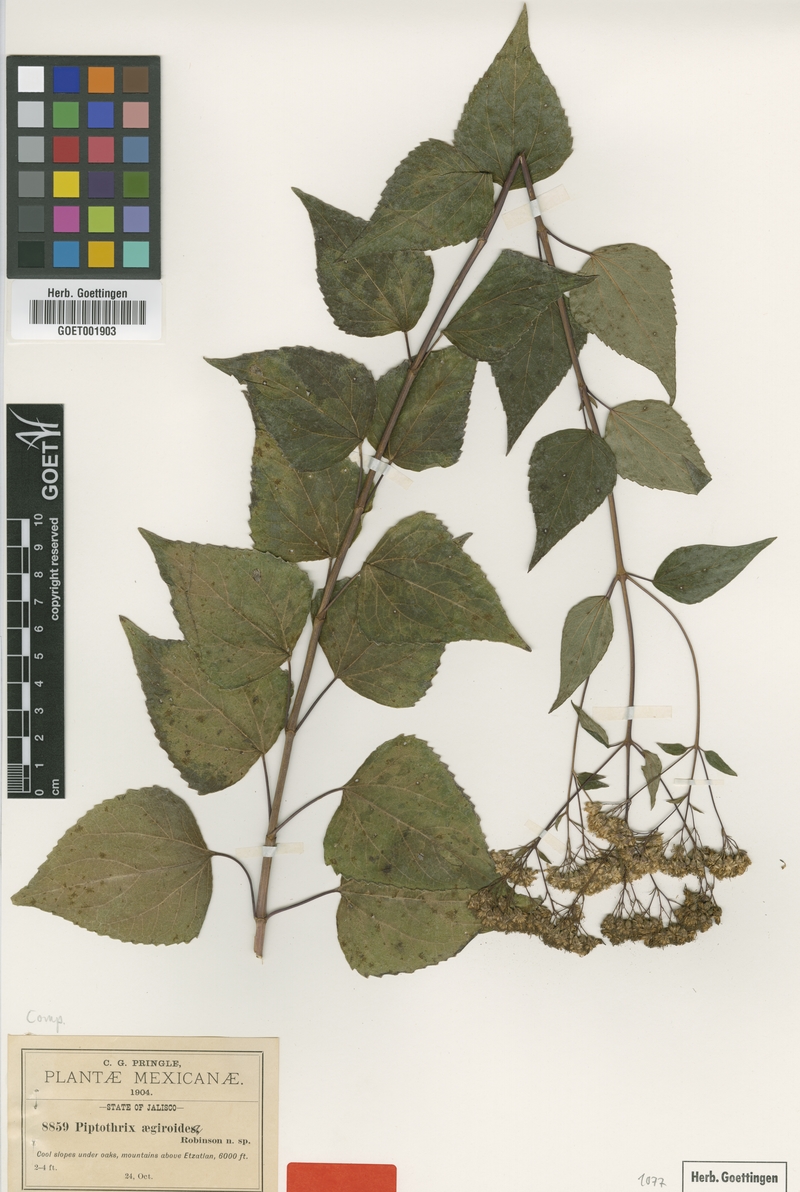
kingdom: Plantae
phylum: Tracheophyta
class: Magnoliopsida
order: Asterales
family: Asteraceae
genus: Jaliscoa
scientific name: Jaliscoa goldmanii
